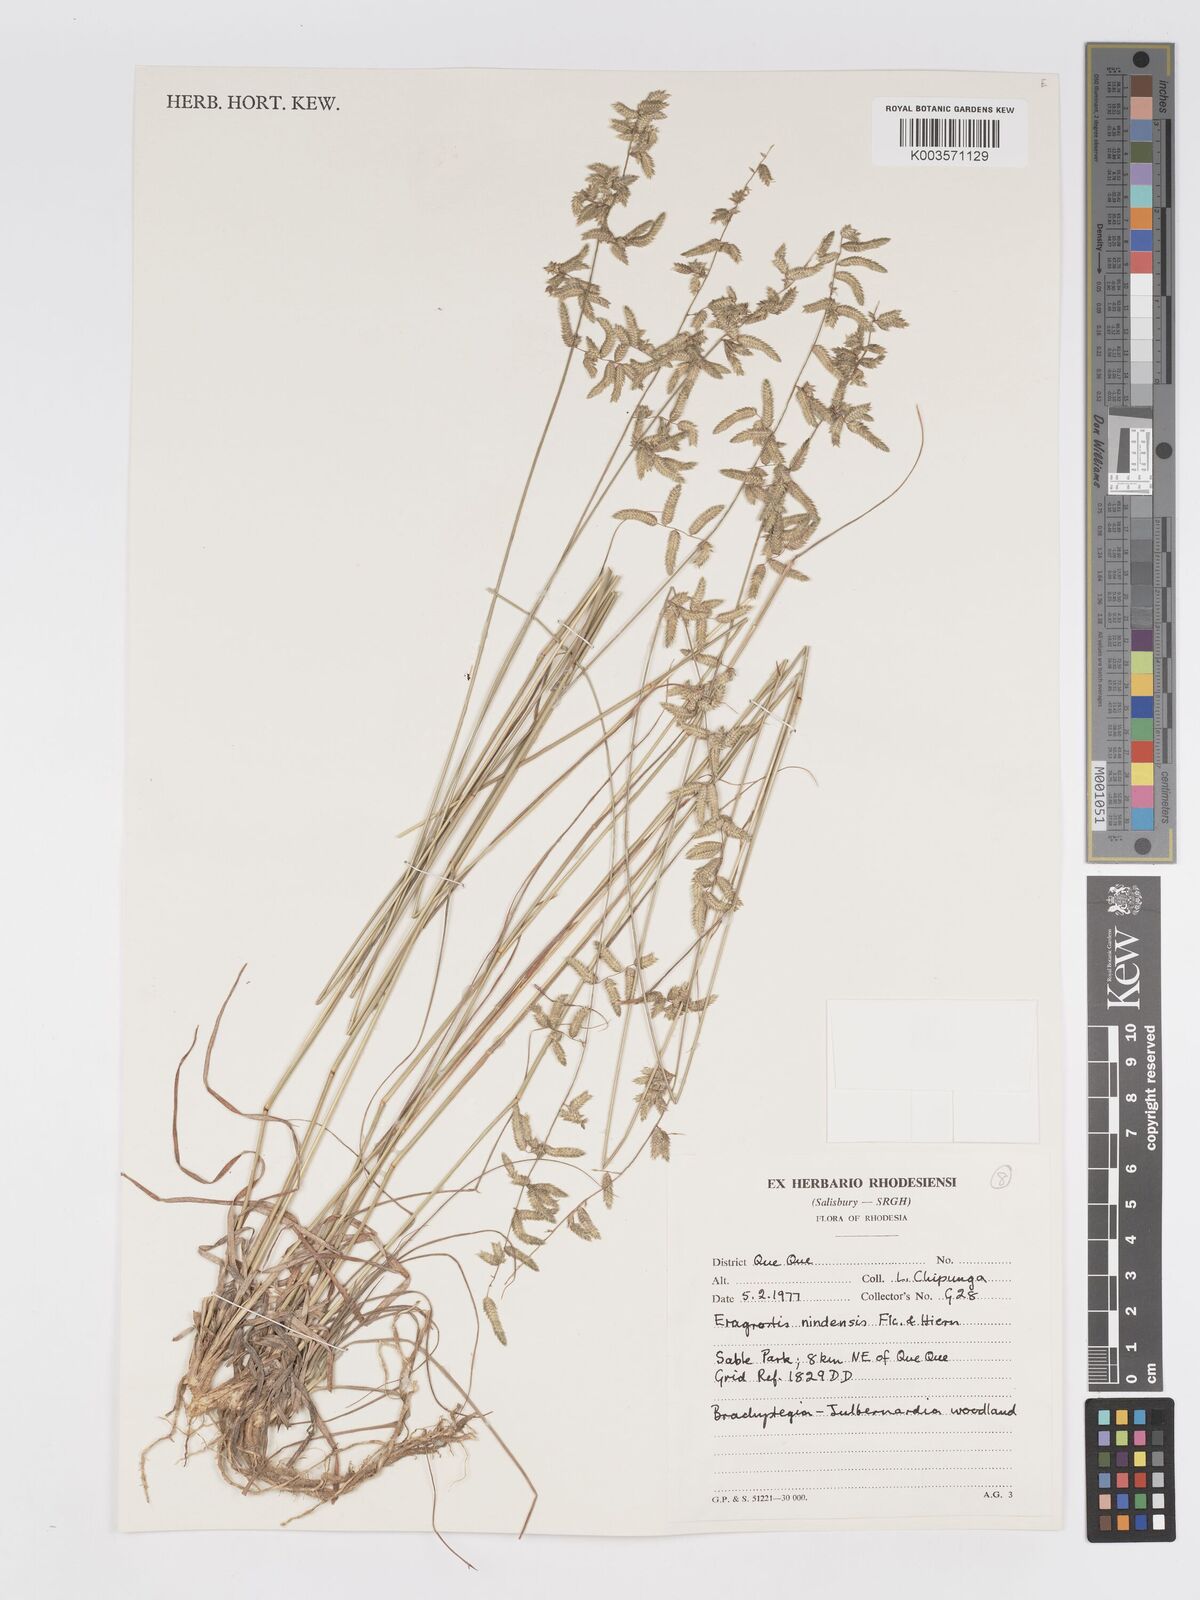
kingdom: Plantae
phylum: Tracheophyta
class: Liliopsida
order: Poales
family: Poaceae
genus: Eragrostis
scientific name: Eragrostis nindensis
